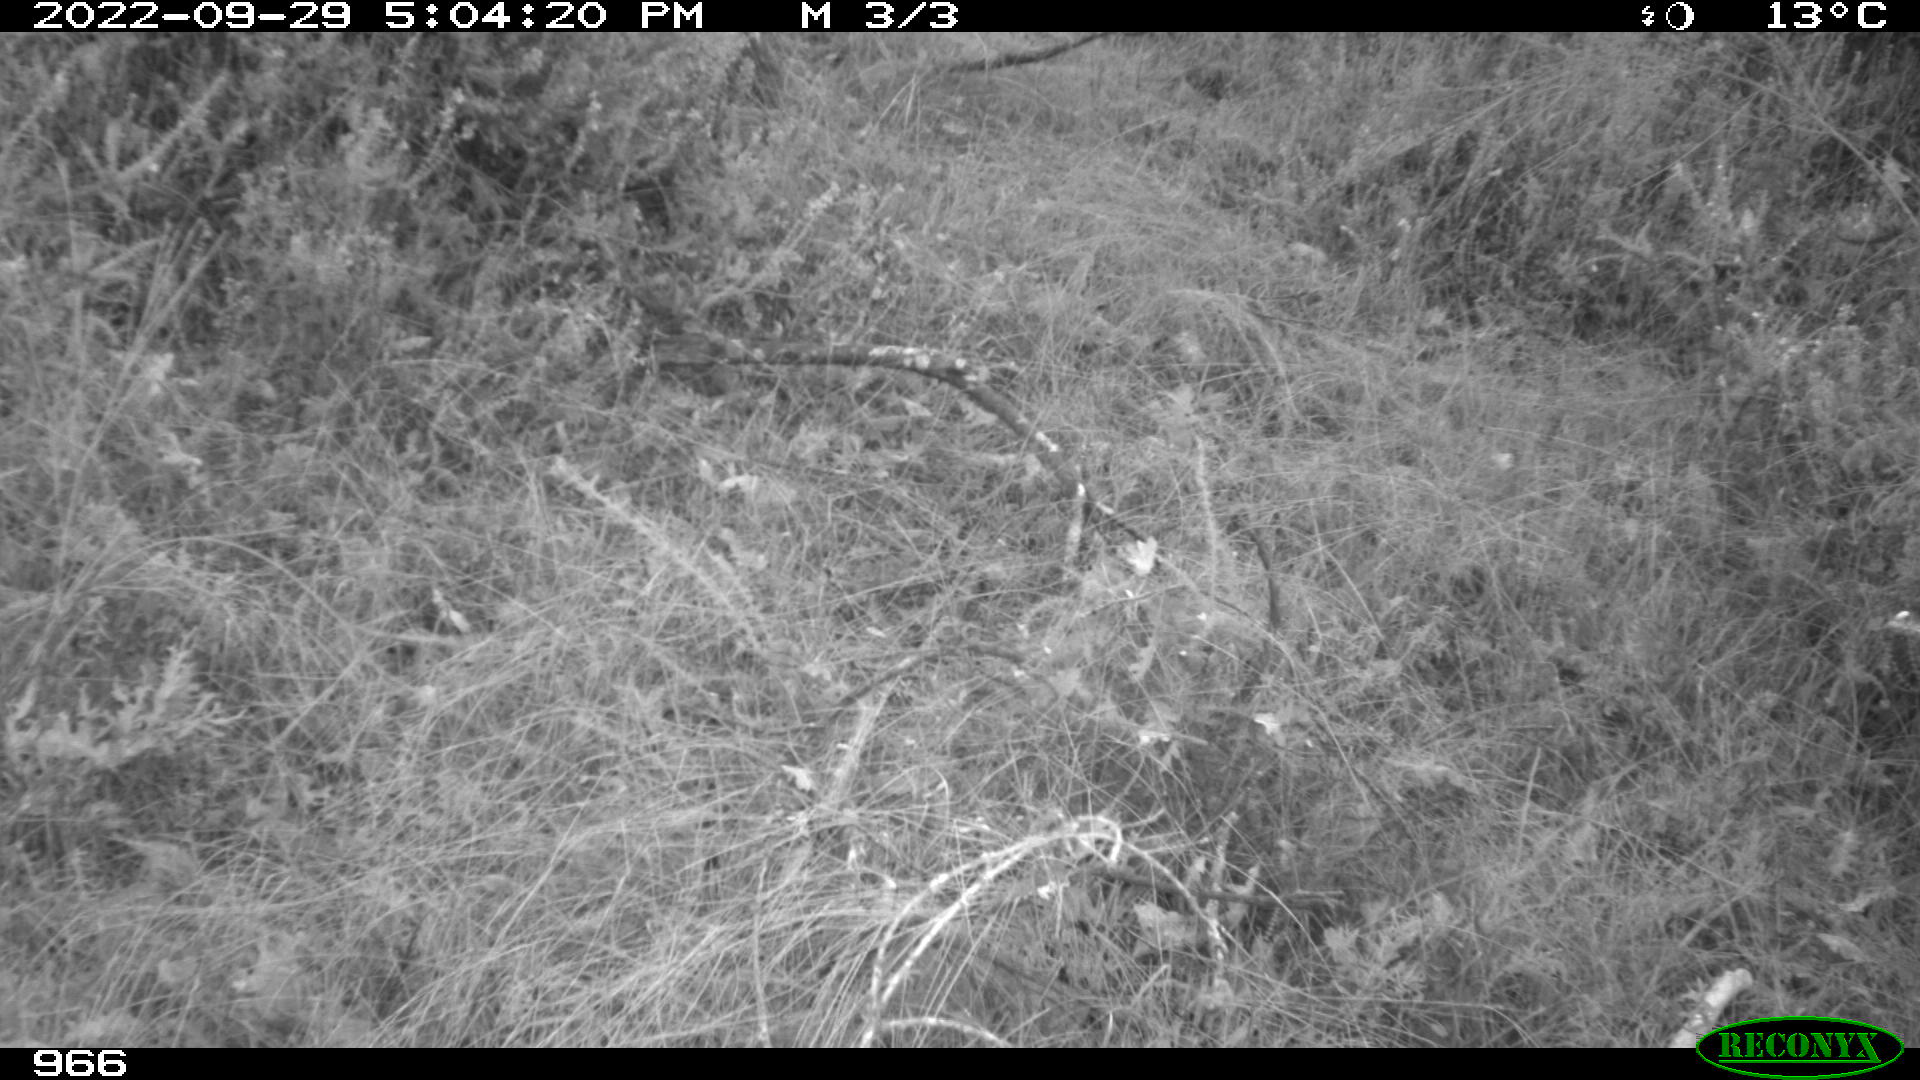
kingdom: Animalia
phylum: Chordata
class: Mammalia
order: Artiodactyla
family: Suidae
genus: Sus
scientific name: Sus scrofa
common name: Wild boar
